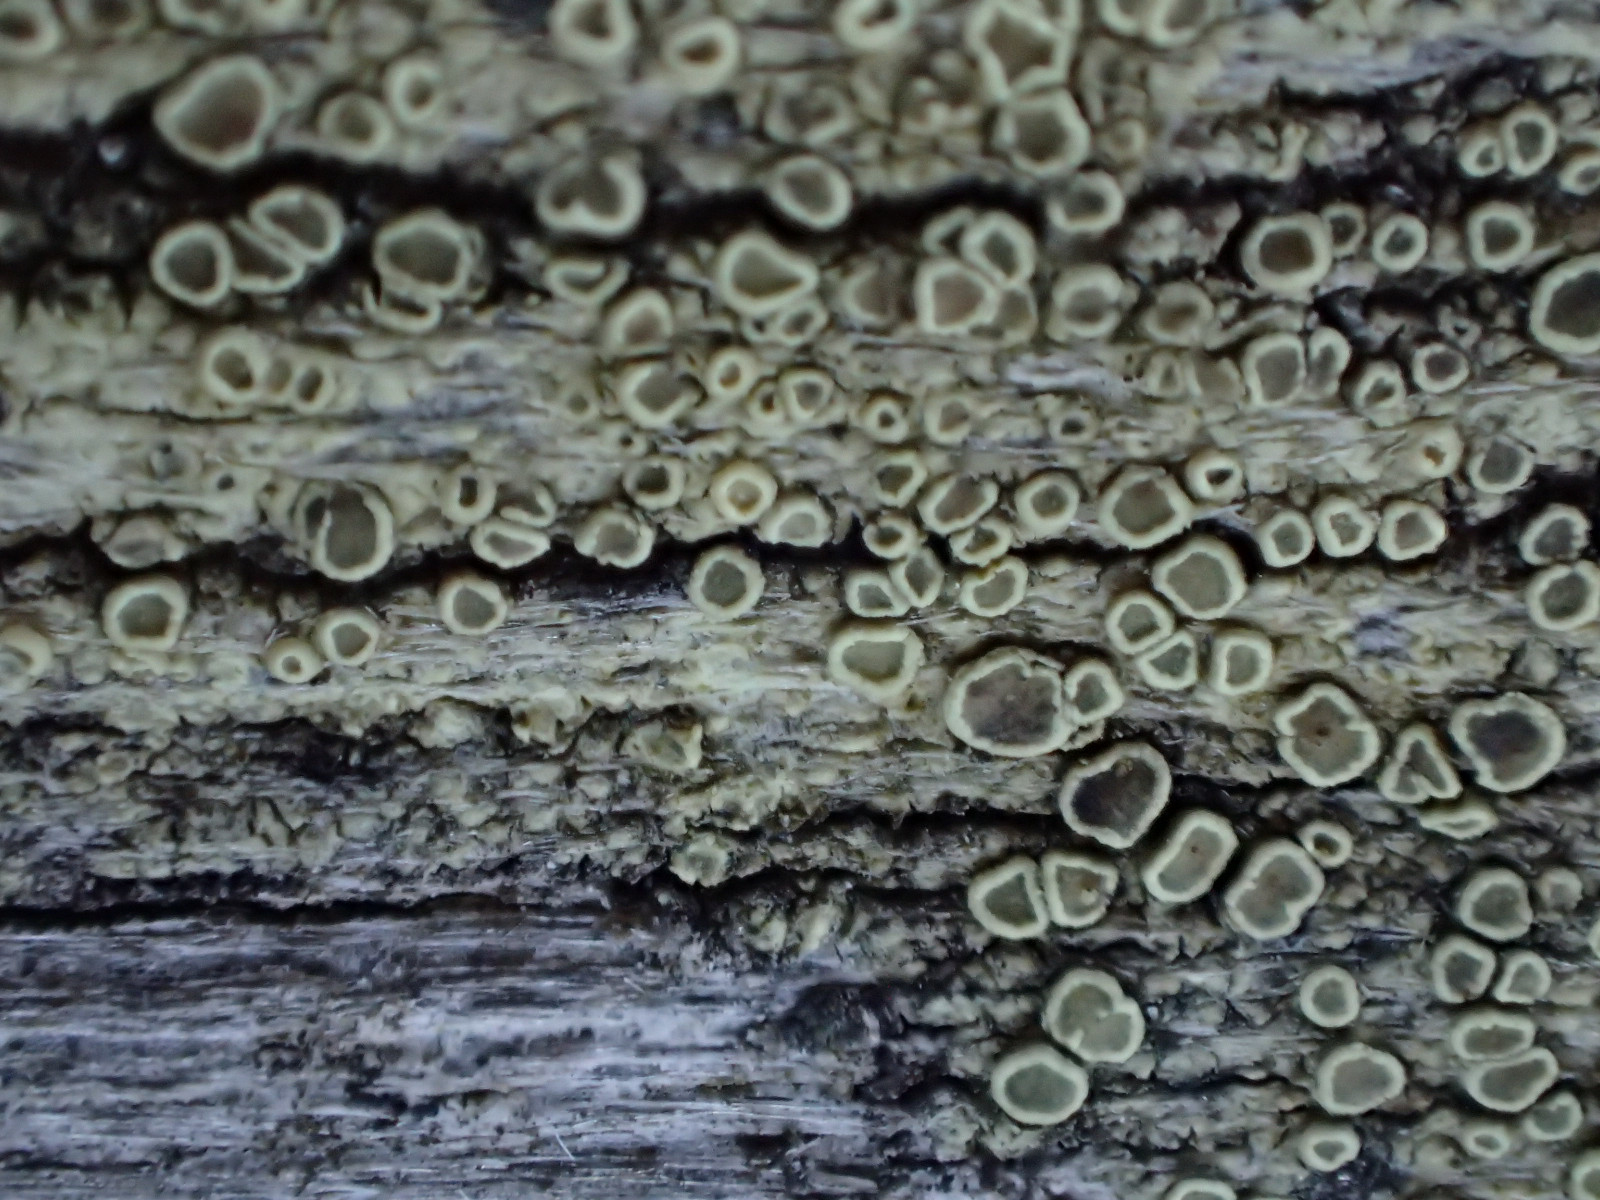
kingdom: Fungi
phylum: Ascomycota
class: Lecanoromycetes
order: Lecanorales
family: Lecanoraceae
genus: Straminella
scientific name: Straminella varia
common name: gulgrøn kantskivelav
